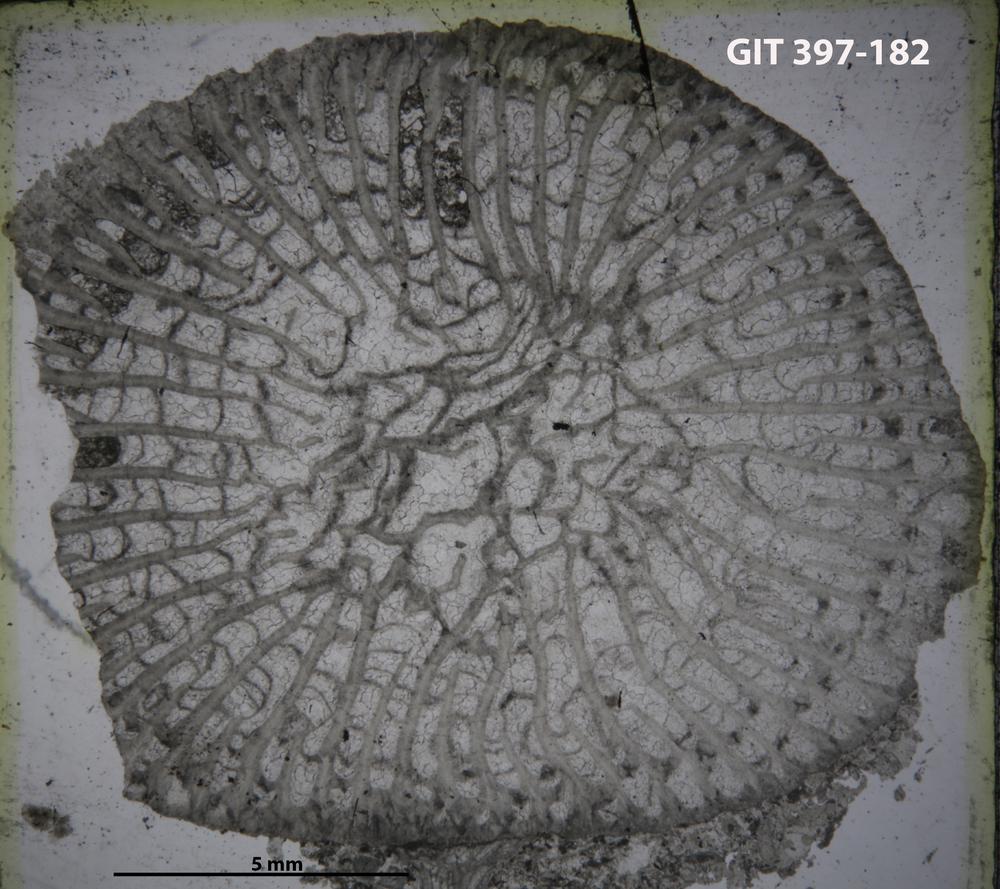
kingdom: Animalia
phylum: Cnidaria
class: Anthozoa
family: Paliphyllidae
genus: Paliphyllum
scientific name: Paliphyllum soshkinae
